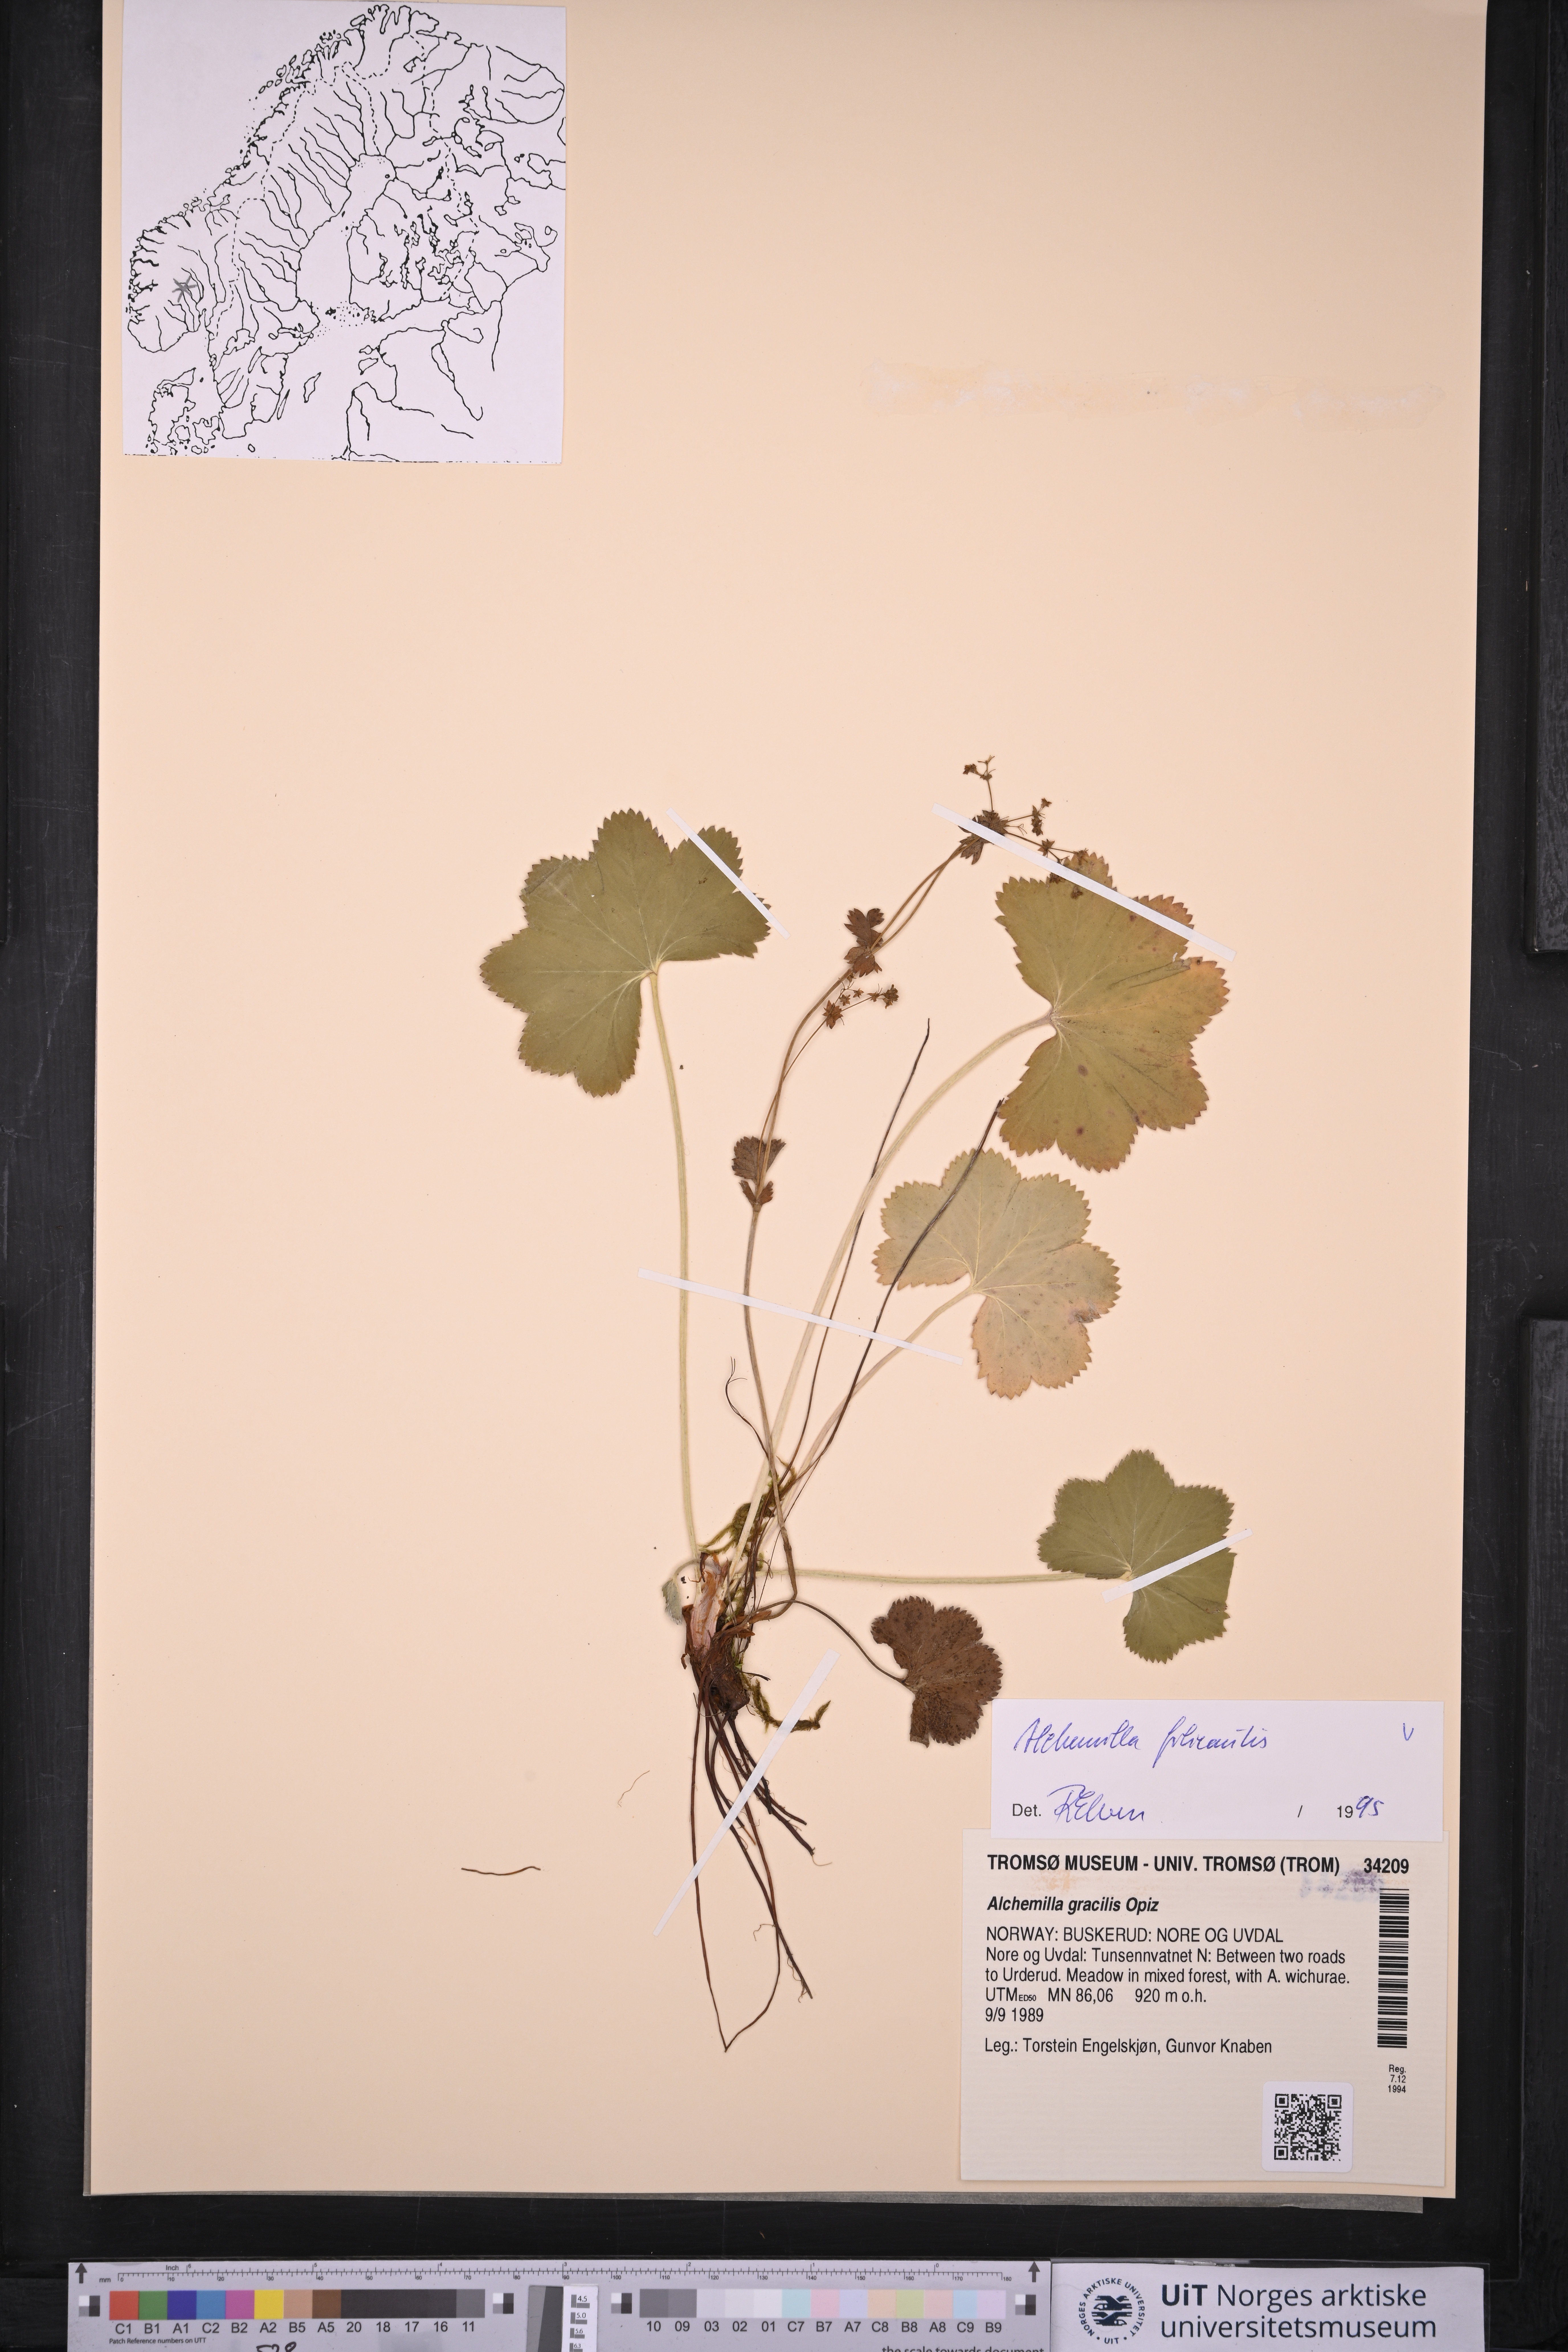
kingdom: Plantae
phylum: Tracheophyta
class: Magnoliopsida
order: Rosales
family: Rosaceae
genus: Alchemilla
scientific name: Alchemilla filicaulis
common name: Hairy lady's-mantle
